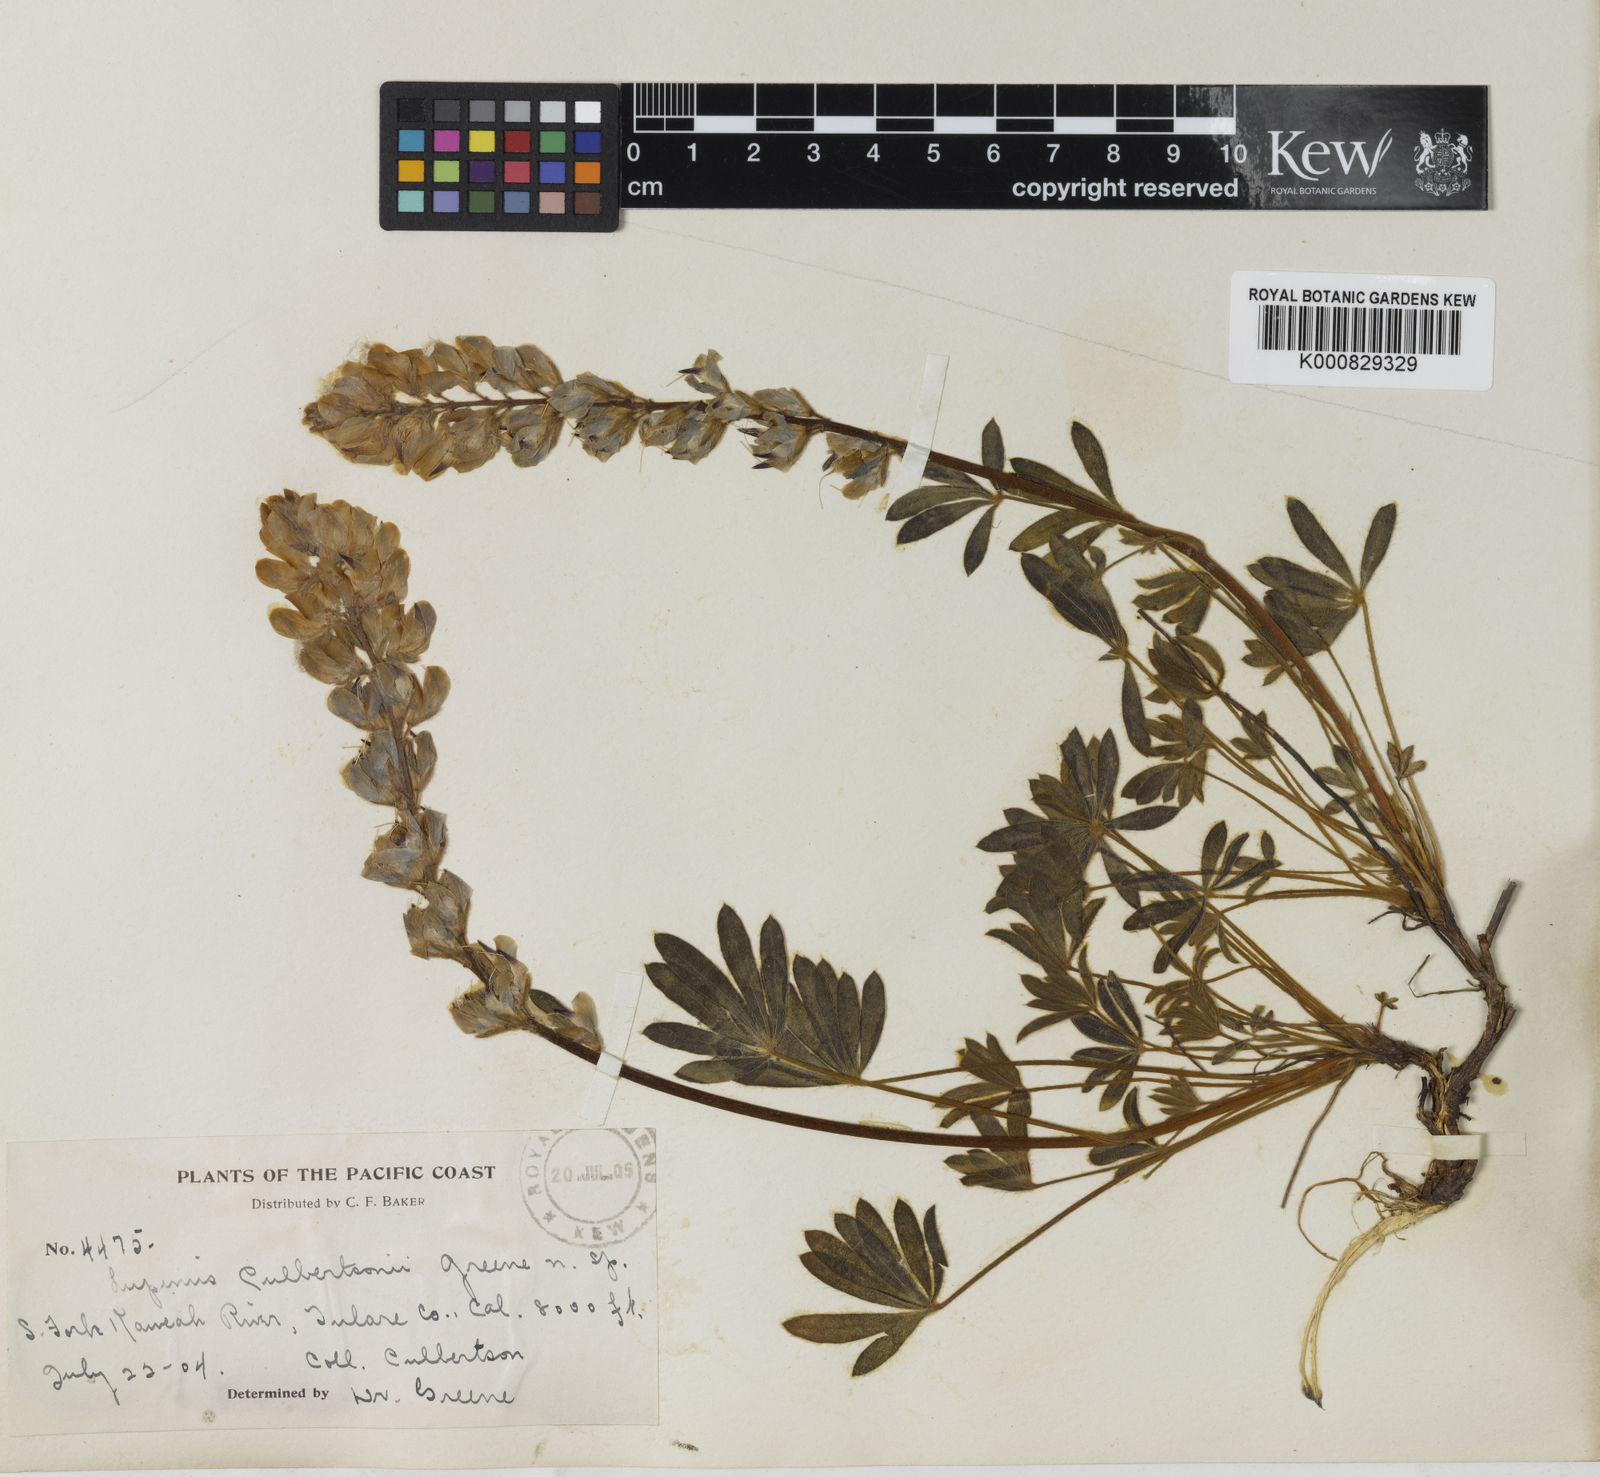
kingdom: Plantae
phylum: Tracheophyta
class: Magnoliopsida
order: Fabales
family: Fabaceae
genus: Lupinus
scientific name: Lupinus culbertsonii
